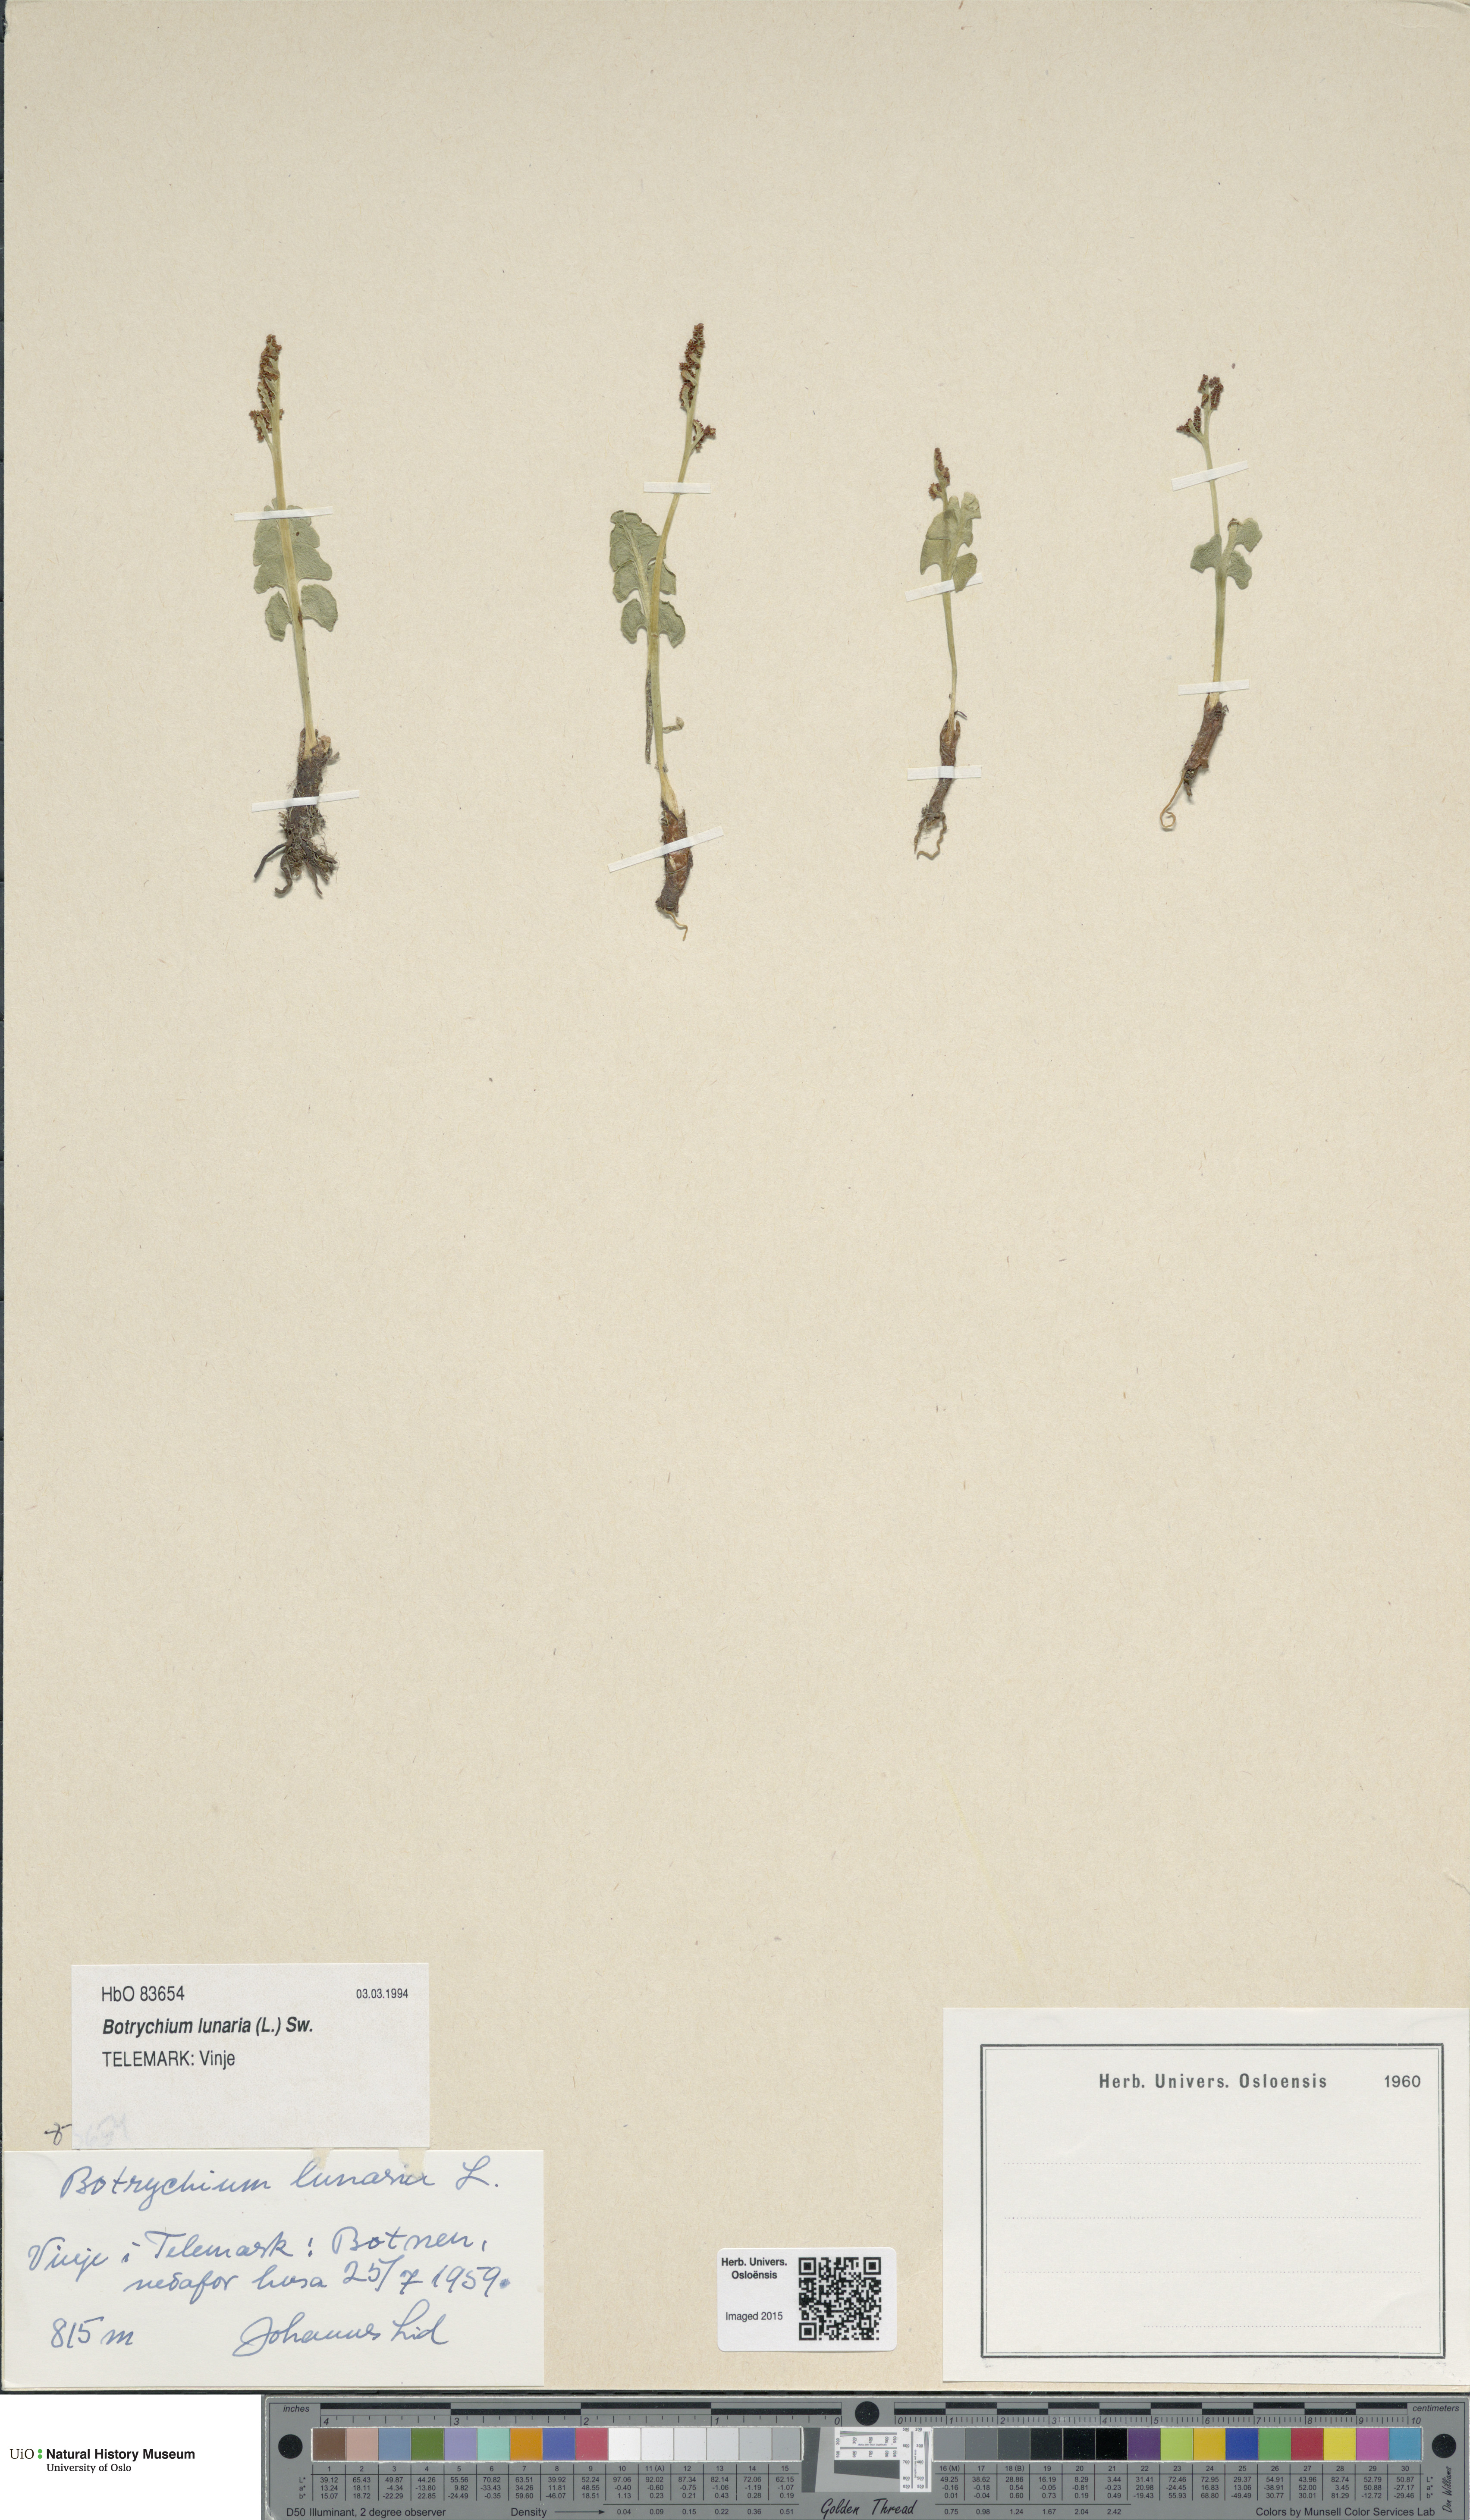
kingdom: Plantae
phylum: Tracheophyta
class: Polypodiopsida
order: Ophioglossales
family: Ophioglossaceae
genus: Botrychium
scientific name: Botrychium lunaria
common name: Moonwort
